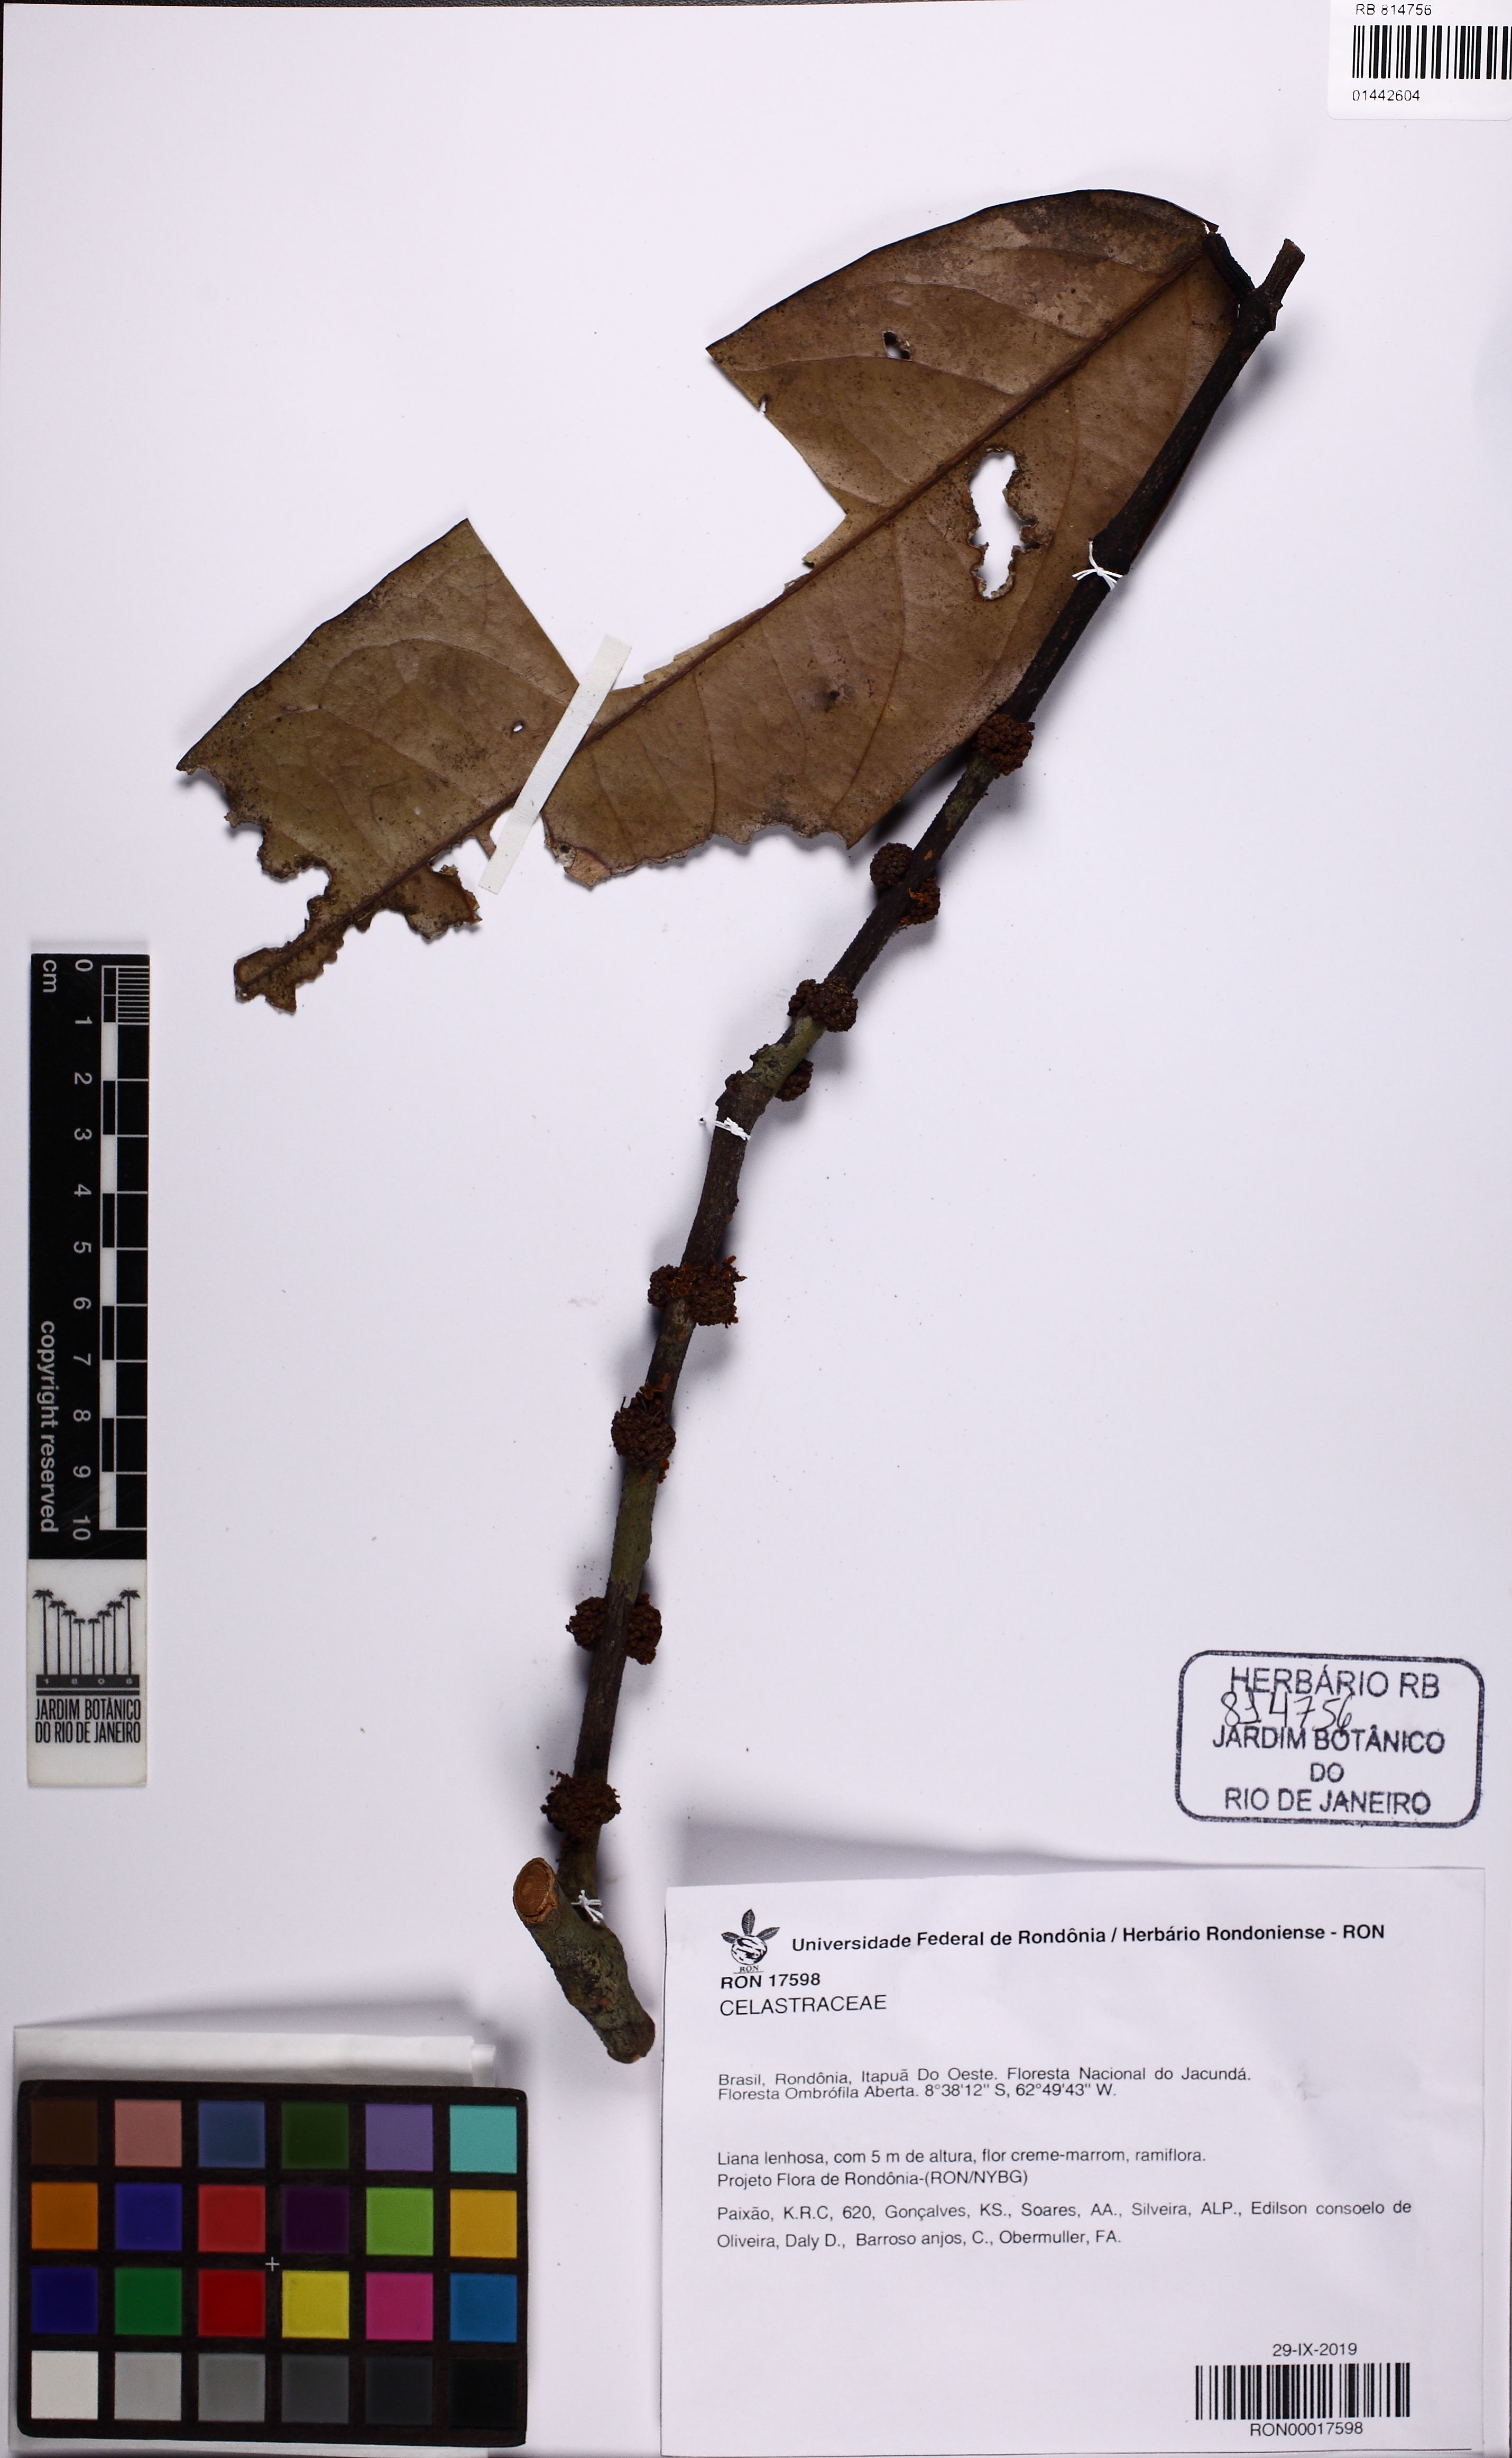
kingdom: Plantae
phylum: Tracheophyta
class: Magnoliopsida
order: Celastrales
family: Celastraceae
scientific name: Celastraceae
